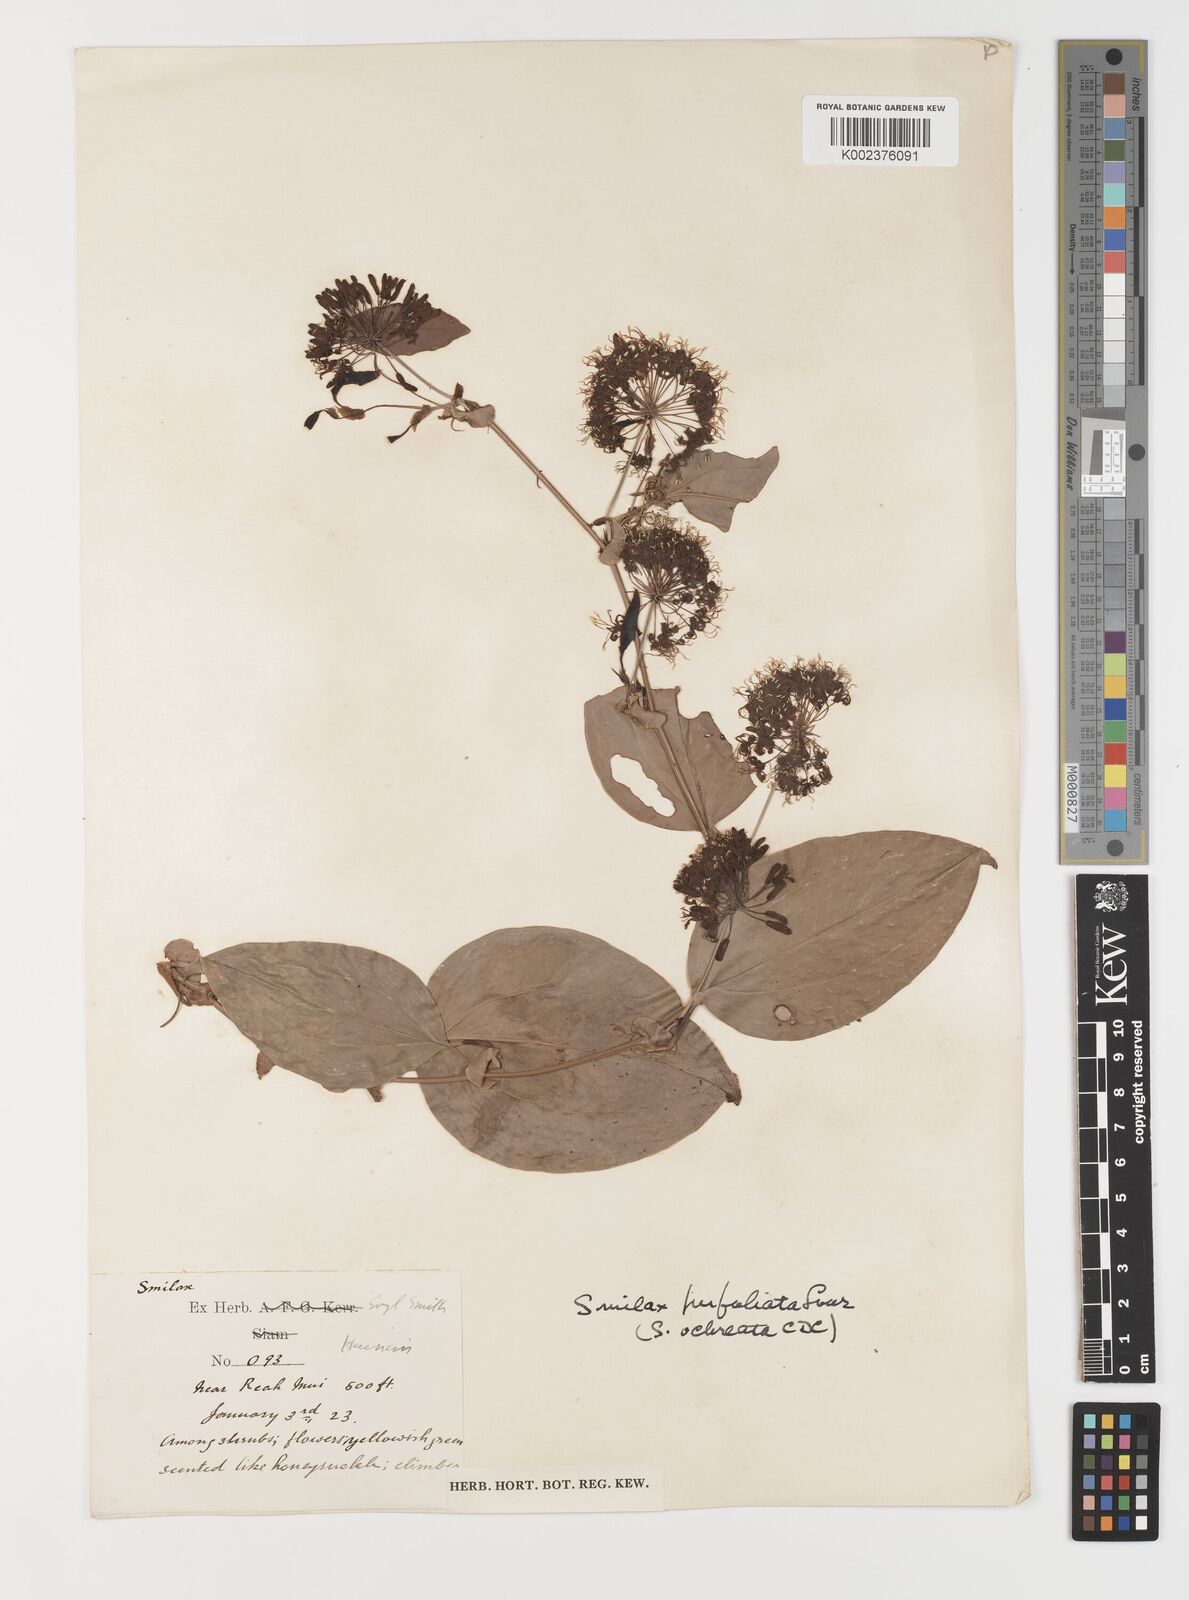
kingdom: Plantae
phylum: Tracheophyta
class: Liliopsida
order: Liliales
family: Smilacaceae
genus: Smilax
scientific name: Smilax ocreata
